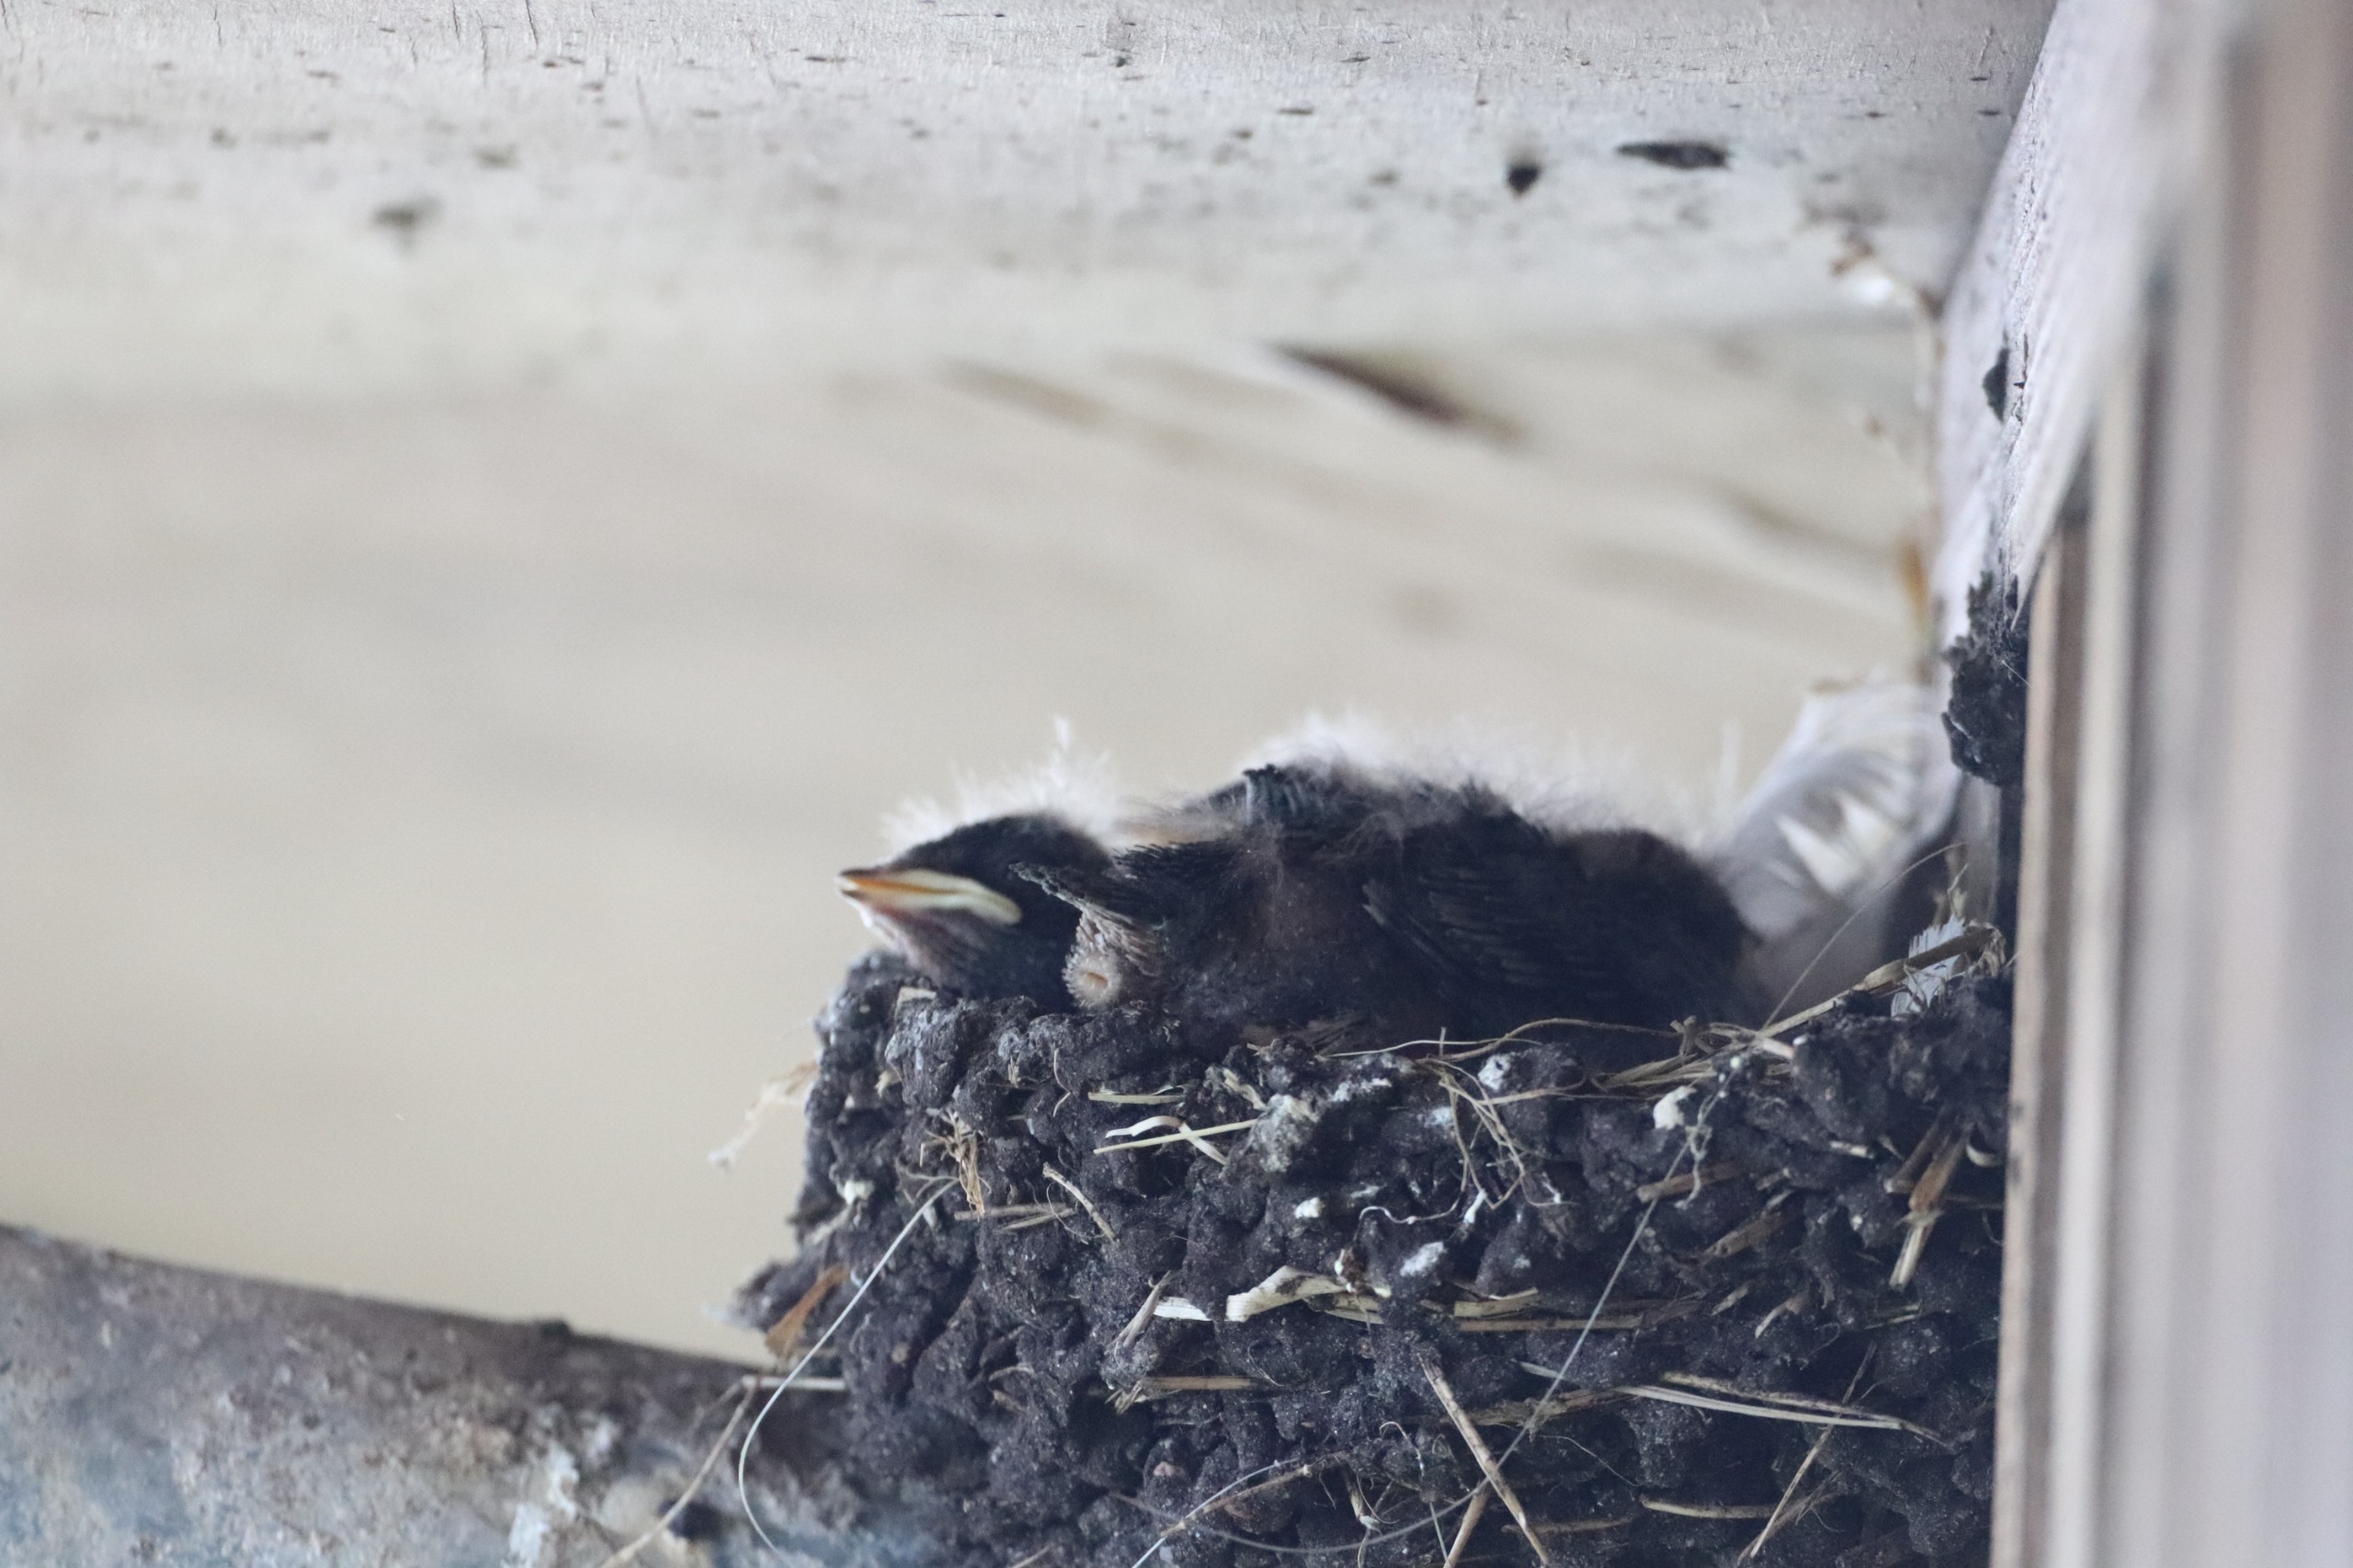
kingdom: Animalia
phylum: Chordata
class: Aves
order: Passeriformes
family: Hirundinidae
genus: Hirundo
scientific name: Hirundo rustica
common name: Landsvale
